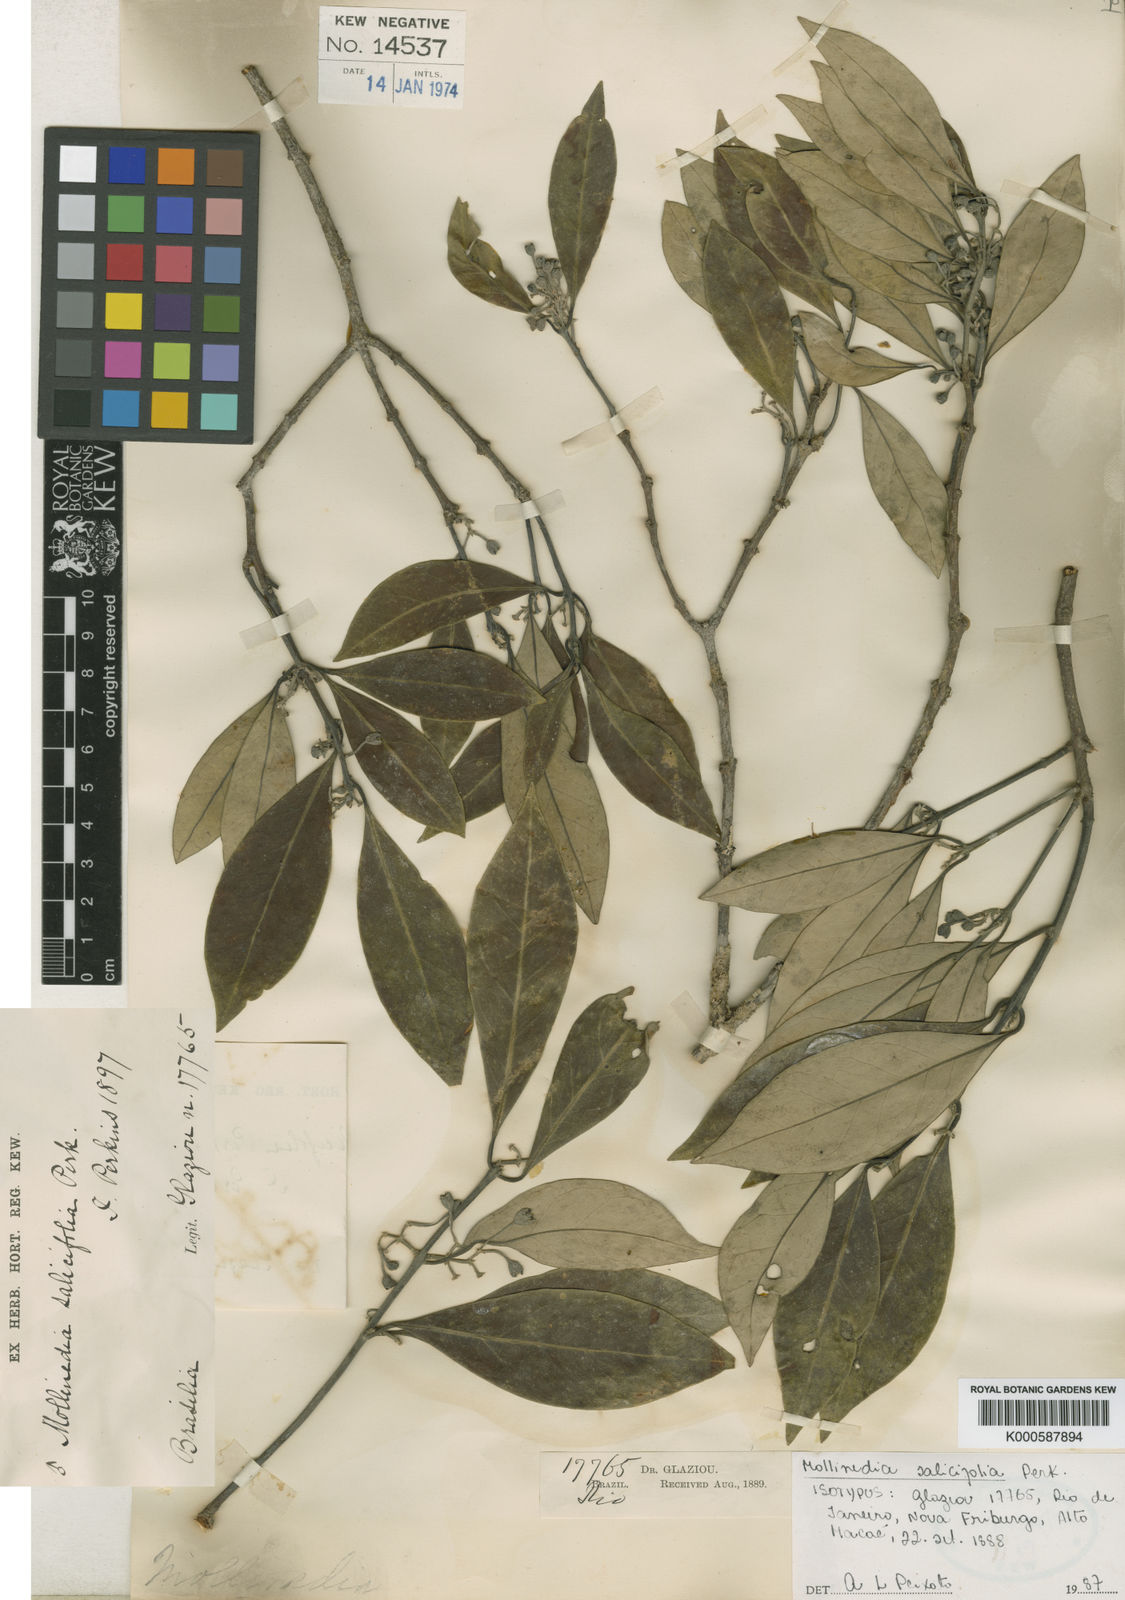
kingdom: Plantae
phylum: Tracheophyta
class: Magnoliopsida
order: Laurales
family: Monimiaceae
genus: Mollinedia
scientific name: Mollinedia salicifolia
